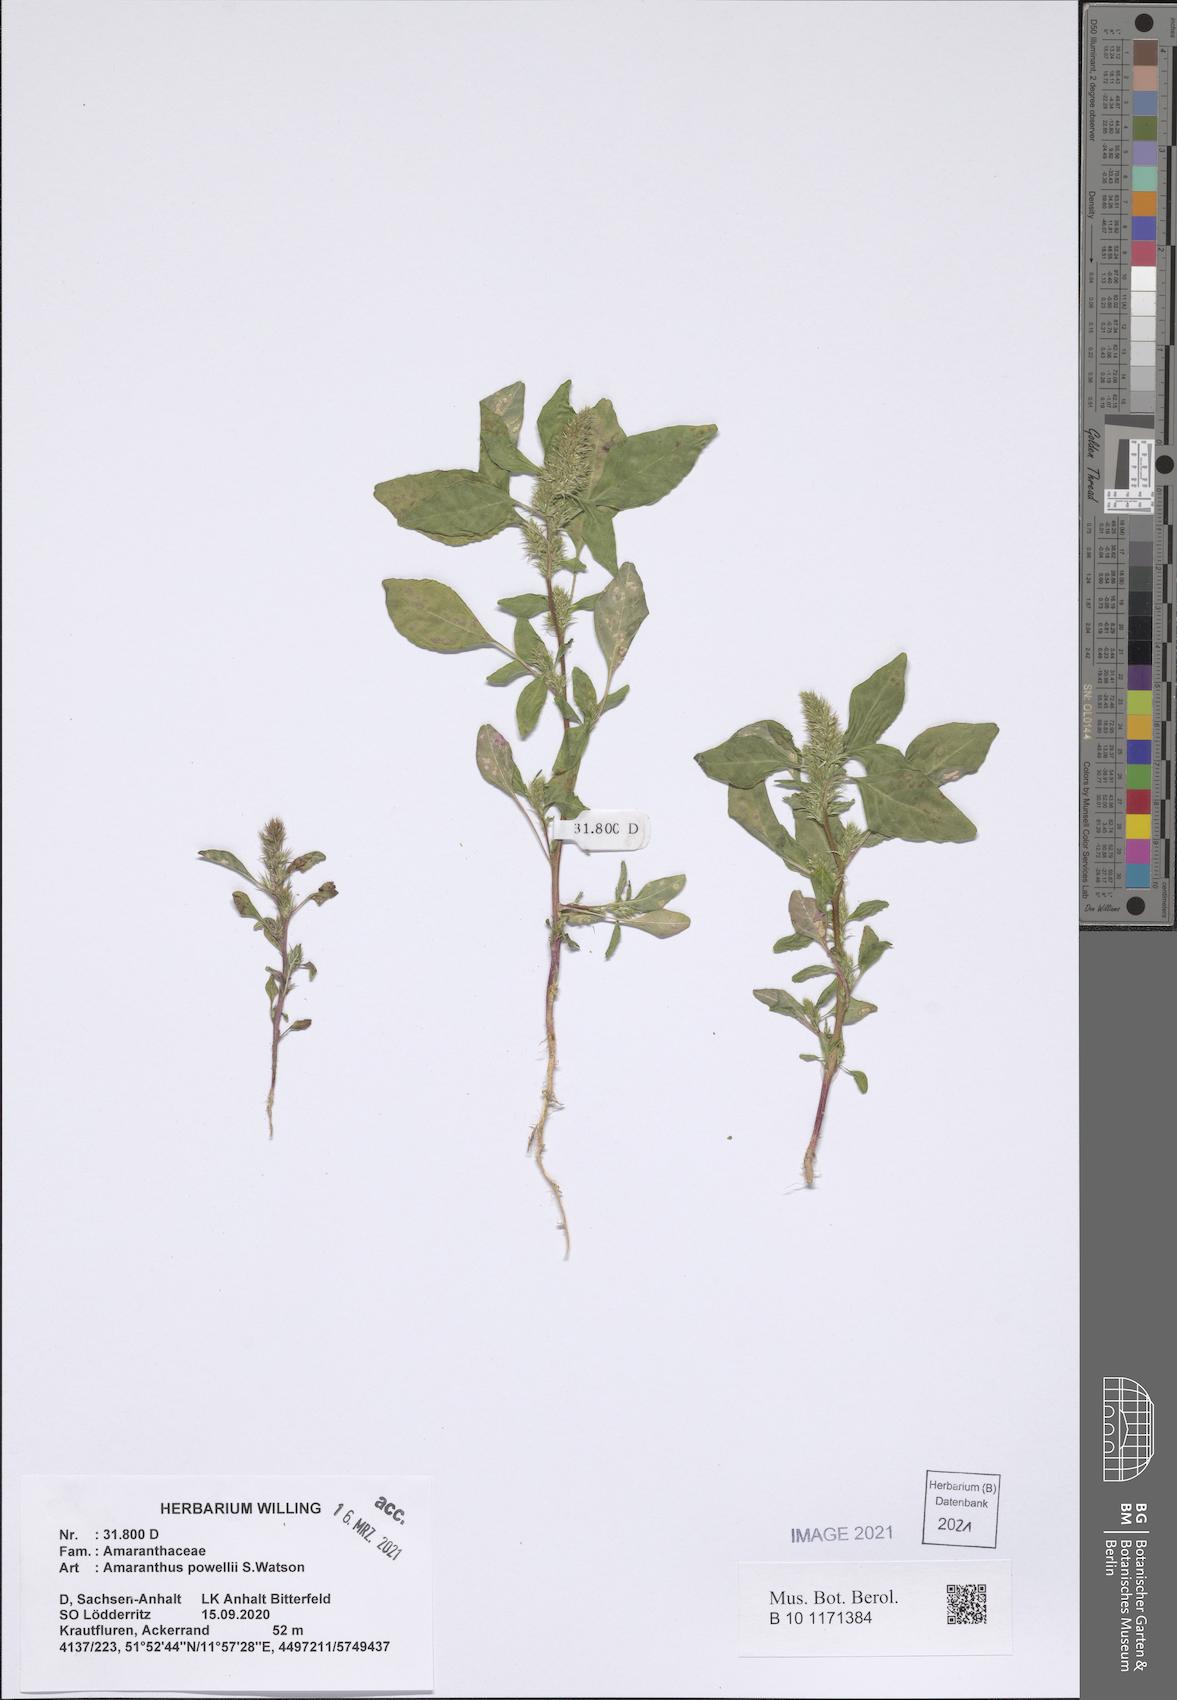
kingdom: Plantae
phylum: Tracheophyta
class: Magnoliopsida
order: Caryophyllales
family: Amaranthaceae
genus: Amaranthus
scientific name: Amaranthus powellii
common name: Powell's amaranth
